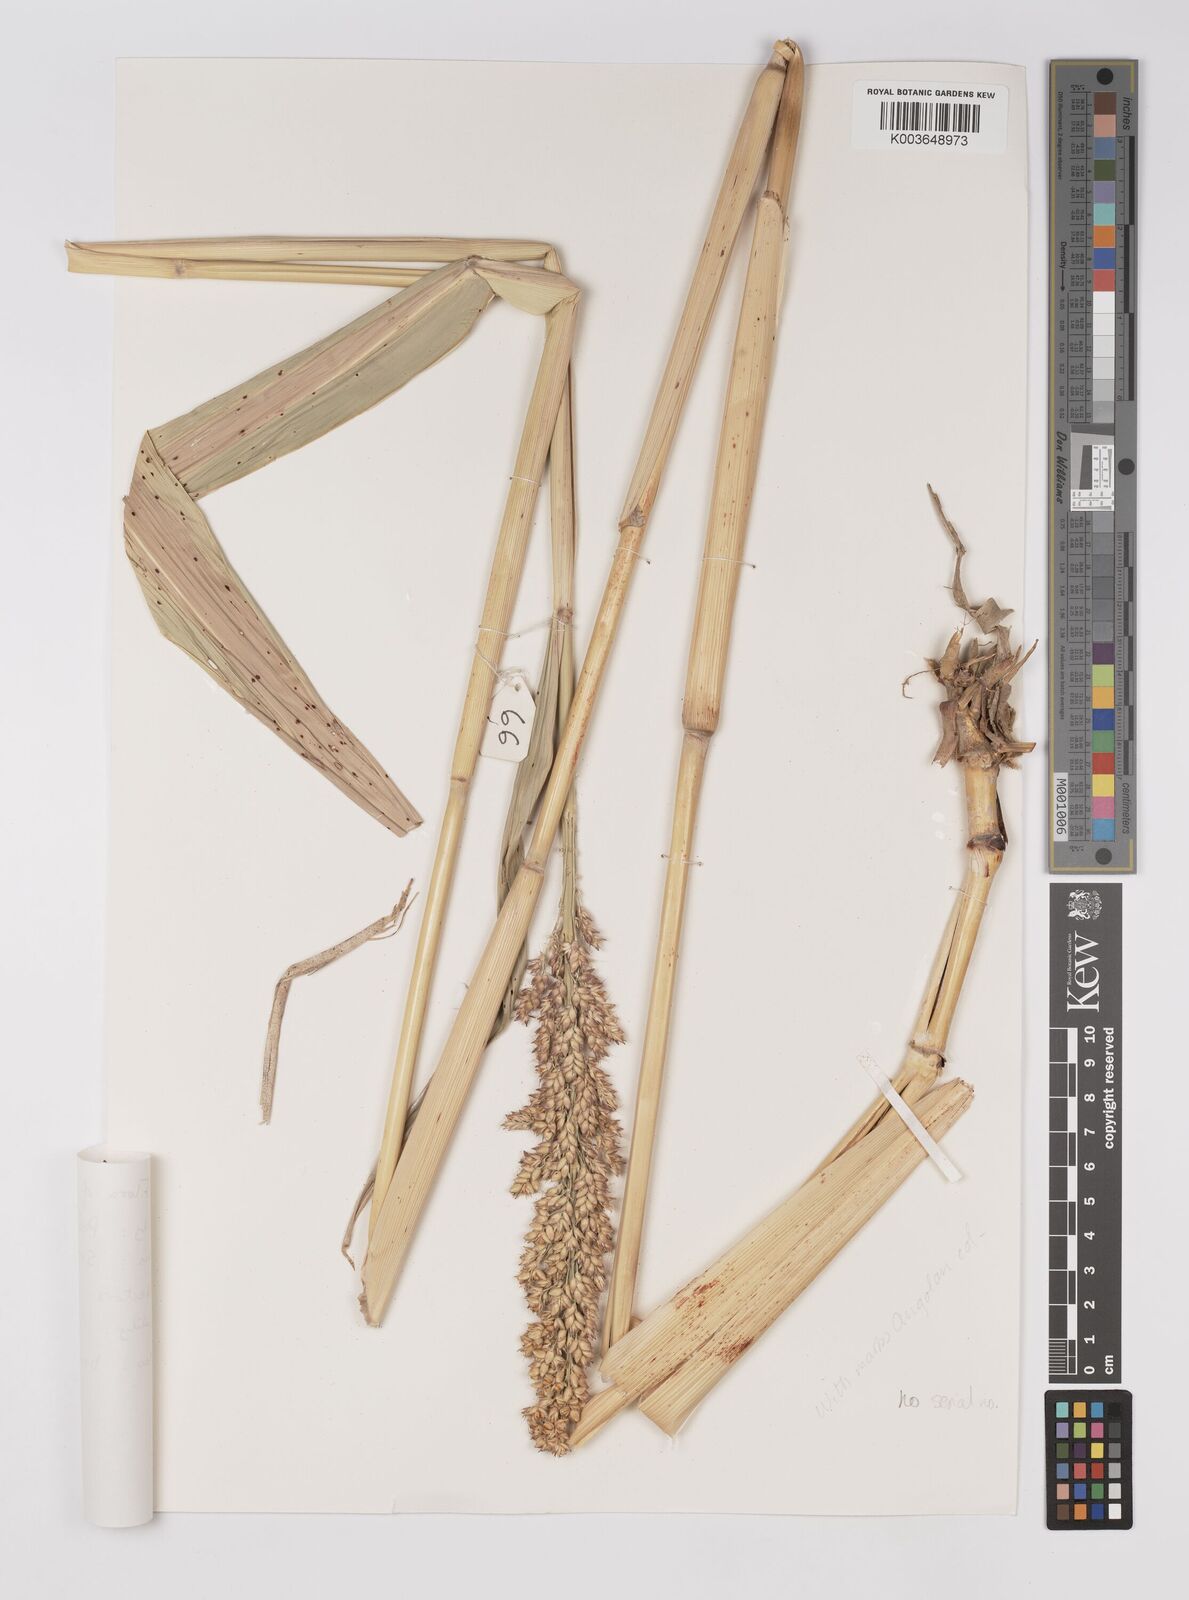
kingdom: Plantae
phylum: Tracheophyta
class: Liliopsida
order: Poales
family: Poaceae
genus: Hyparrhenia
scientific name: Hyparrhenia dichroa
